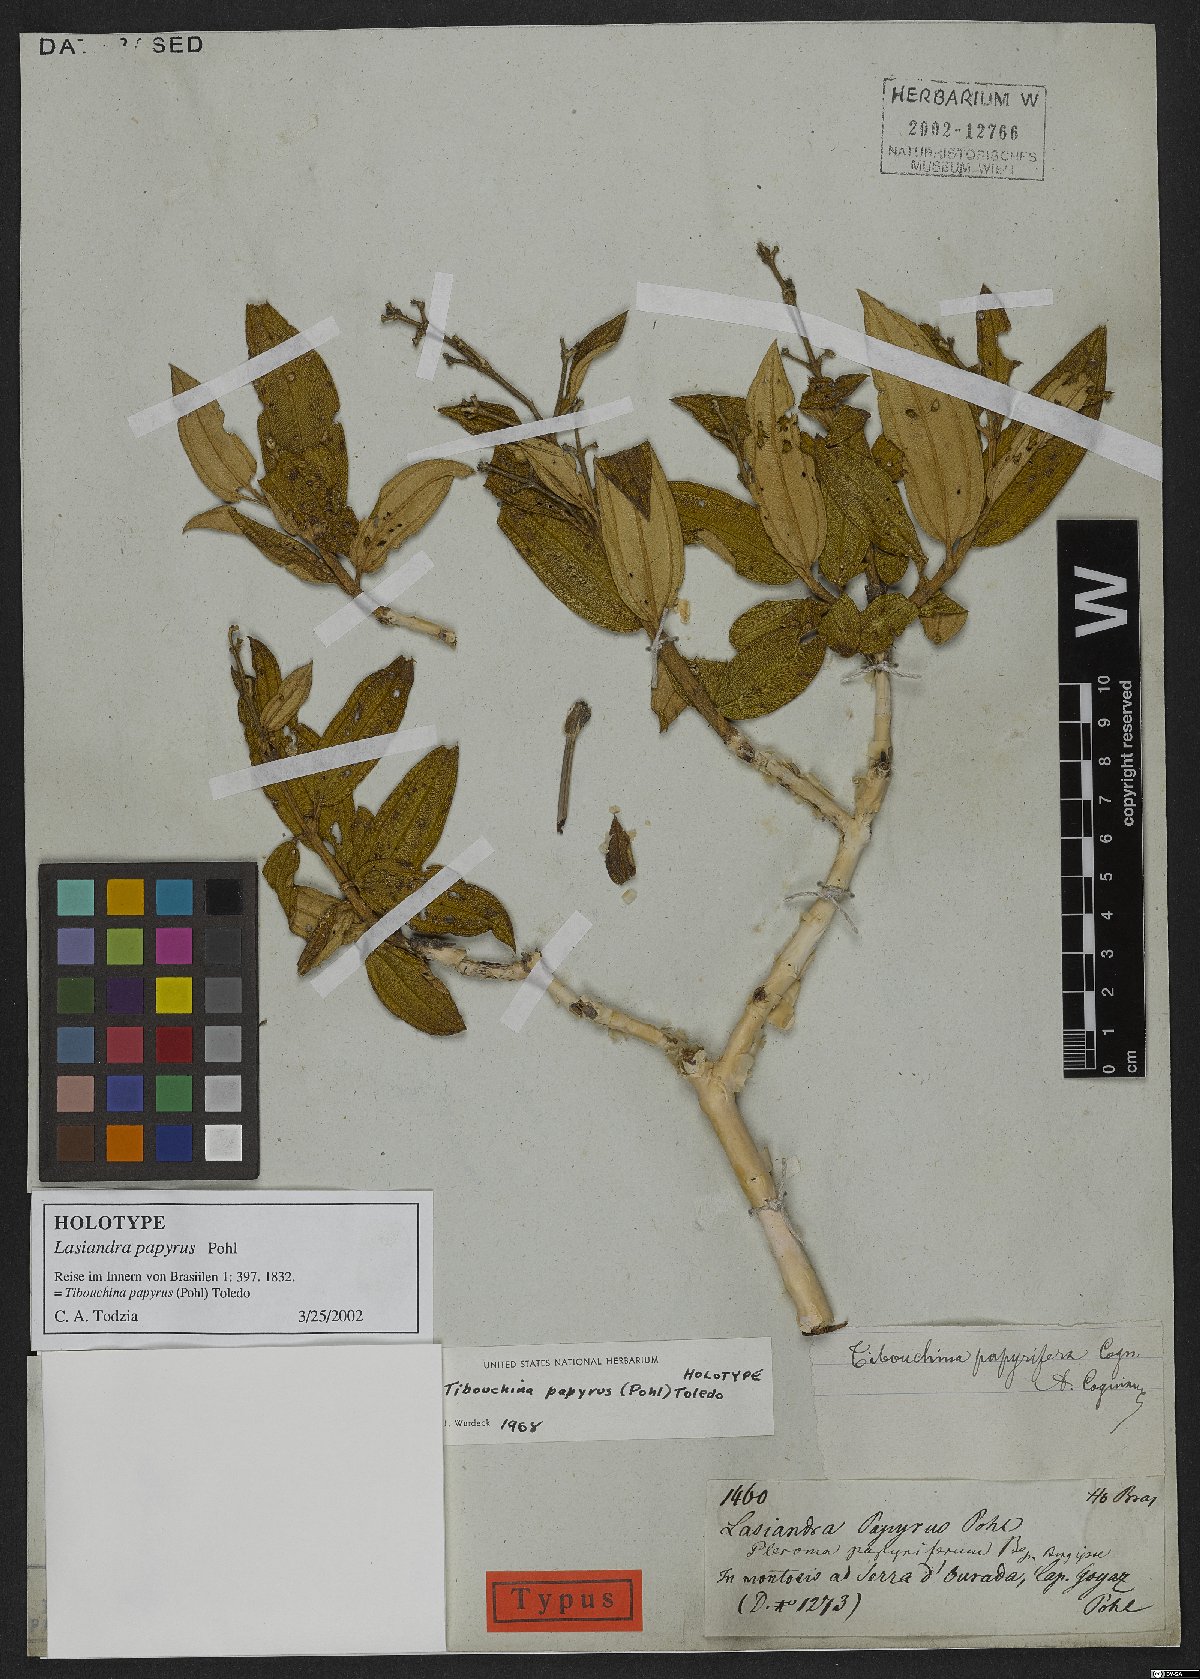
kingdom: Plantae
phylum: Tracheophyta
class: Magnoliopsida
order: Myrtales
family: Melastomataceae
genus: Pleroma
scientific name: Pleroma papyriferum
